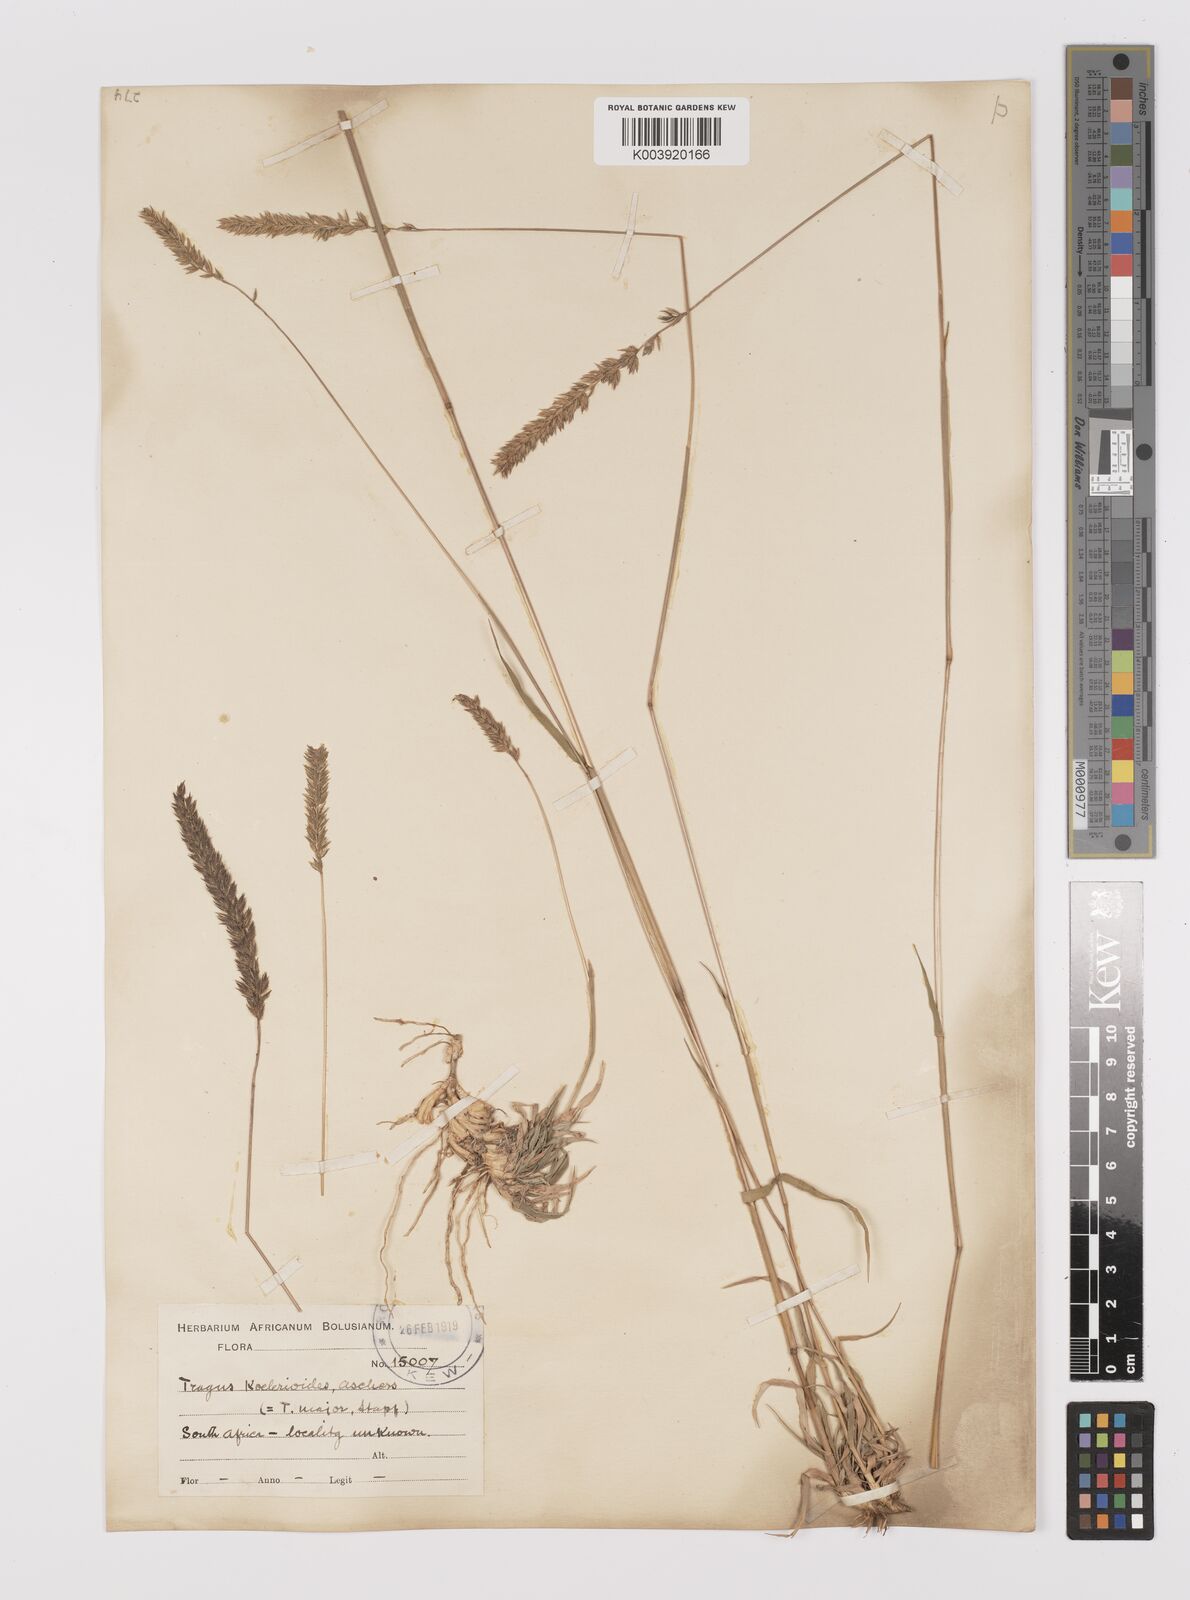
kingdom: Plantae
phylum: Tracheophyta
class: Liliopsida
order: Poales
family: Poaceae
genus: Tragus
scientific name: Tragus koelerioides
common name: Creeping carrot-seed grass
